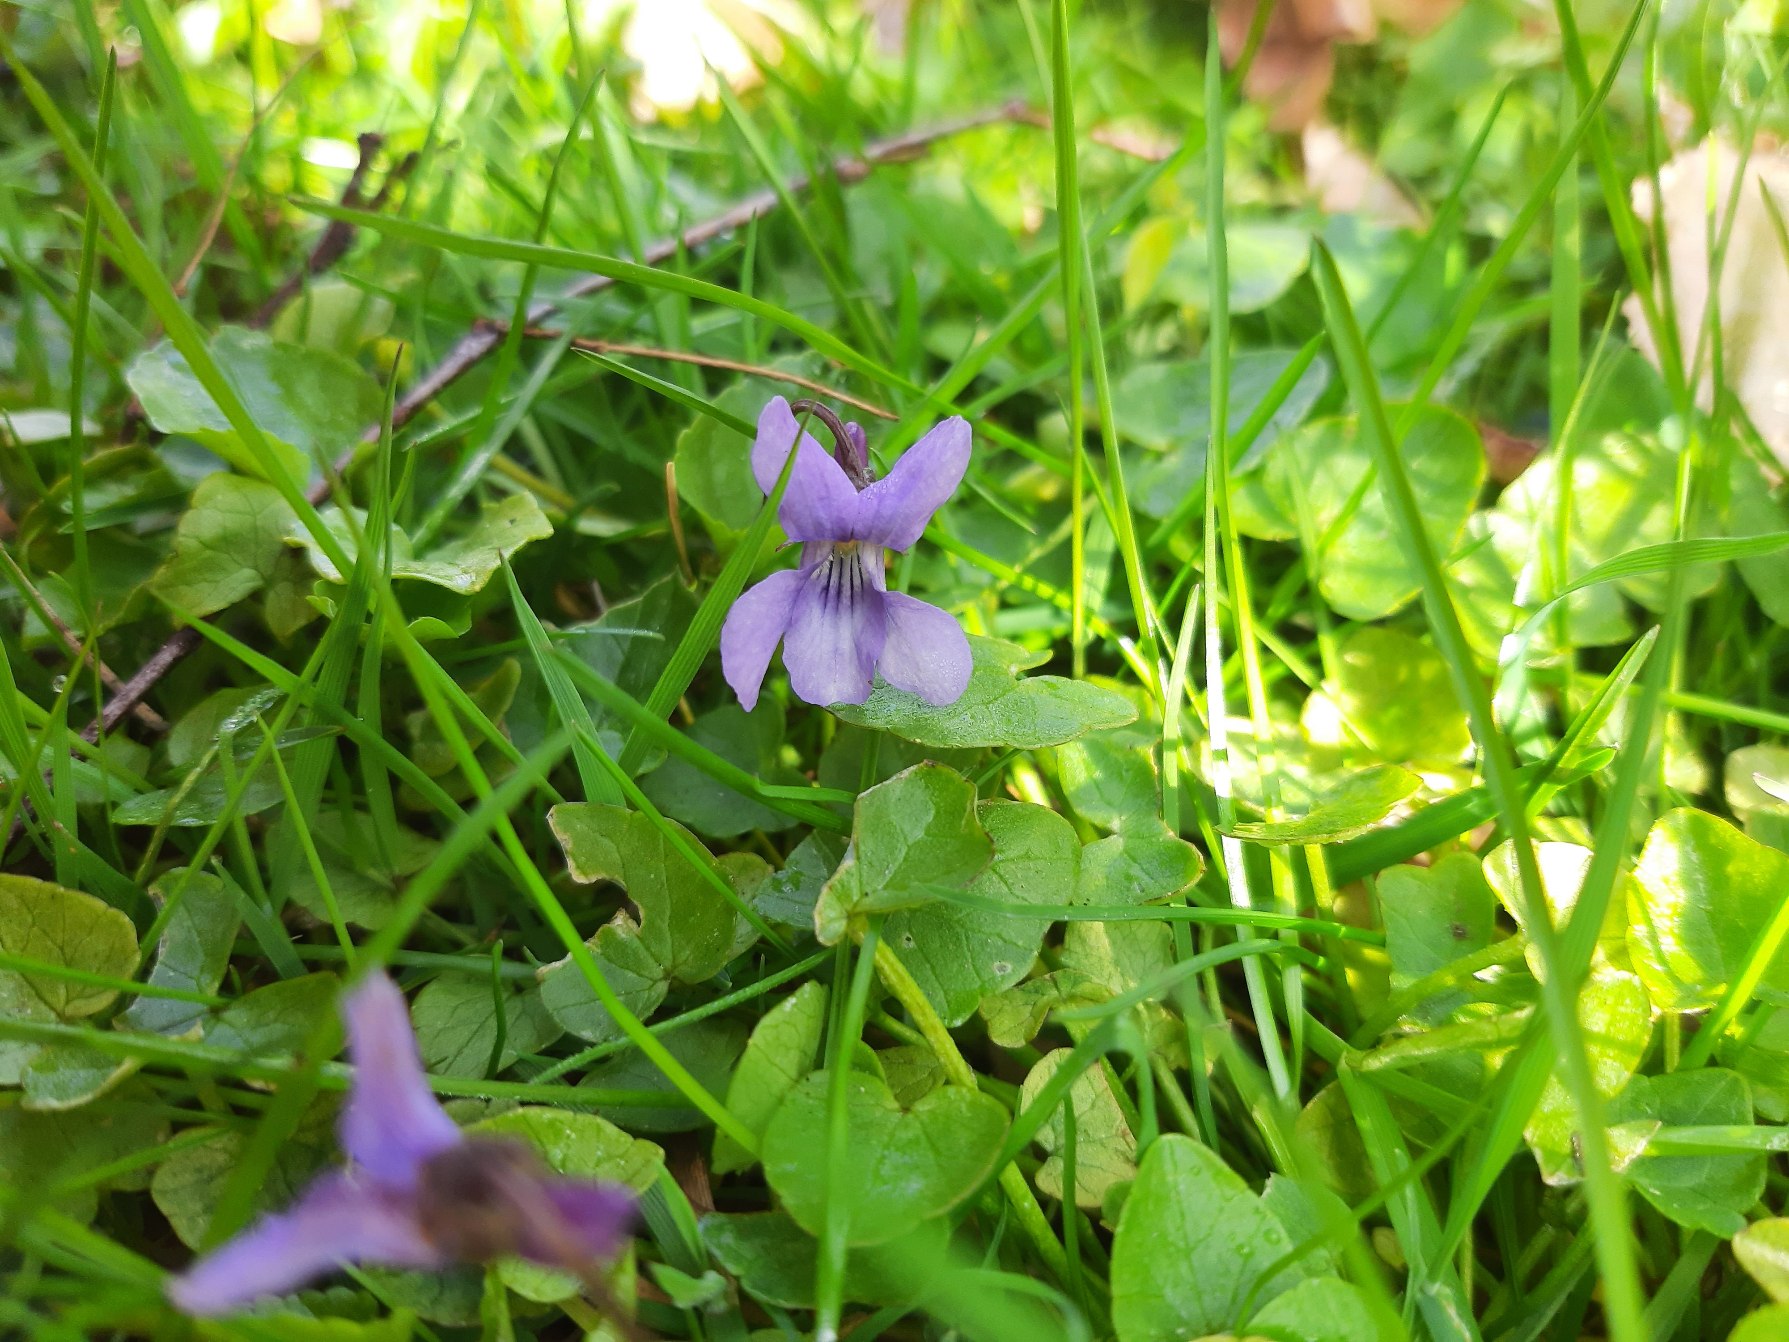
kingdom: Plantae
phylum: Tracheophyta
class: Magnoliopsida
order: Malpighiales
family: Violaceae
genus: Viola
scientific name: Viola reichenbachiana
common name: Skov-viol
